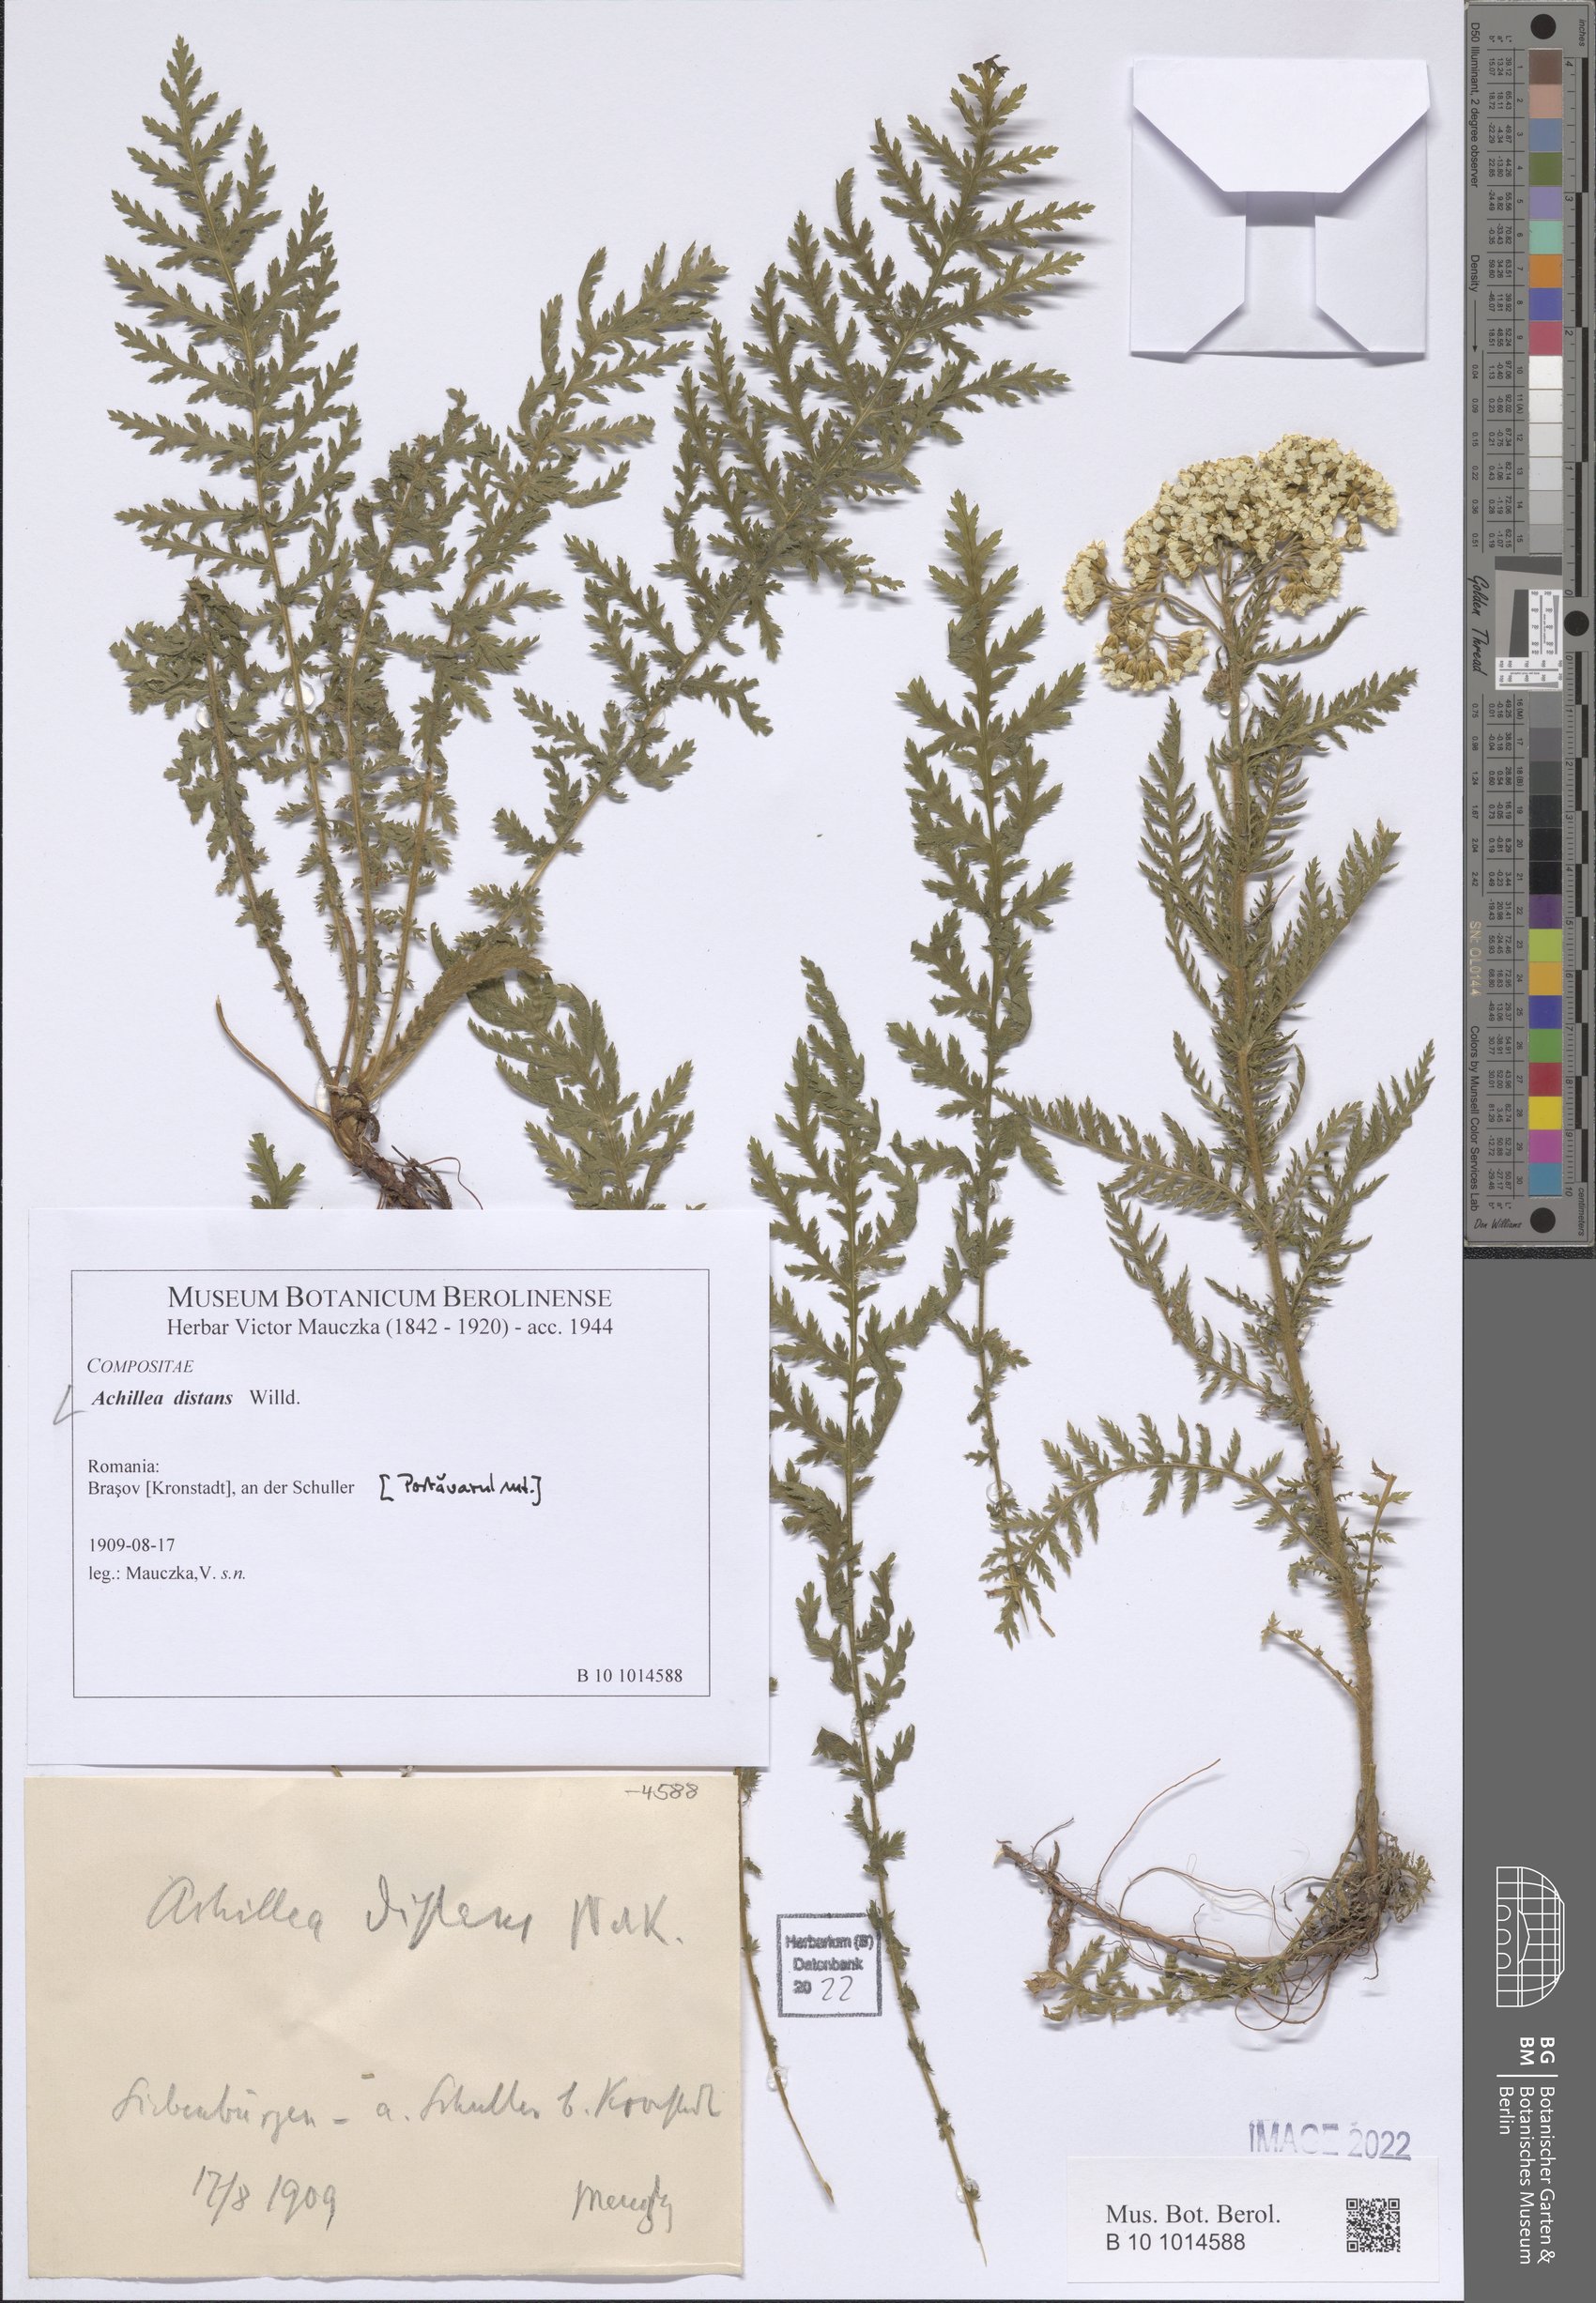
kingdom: Plantae
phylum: Tracheophyta
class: Magnoliopsida
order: Asterales
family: Asteraceae
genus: Achillea
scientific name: Achillea distans
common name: Tall yarrow
